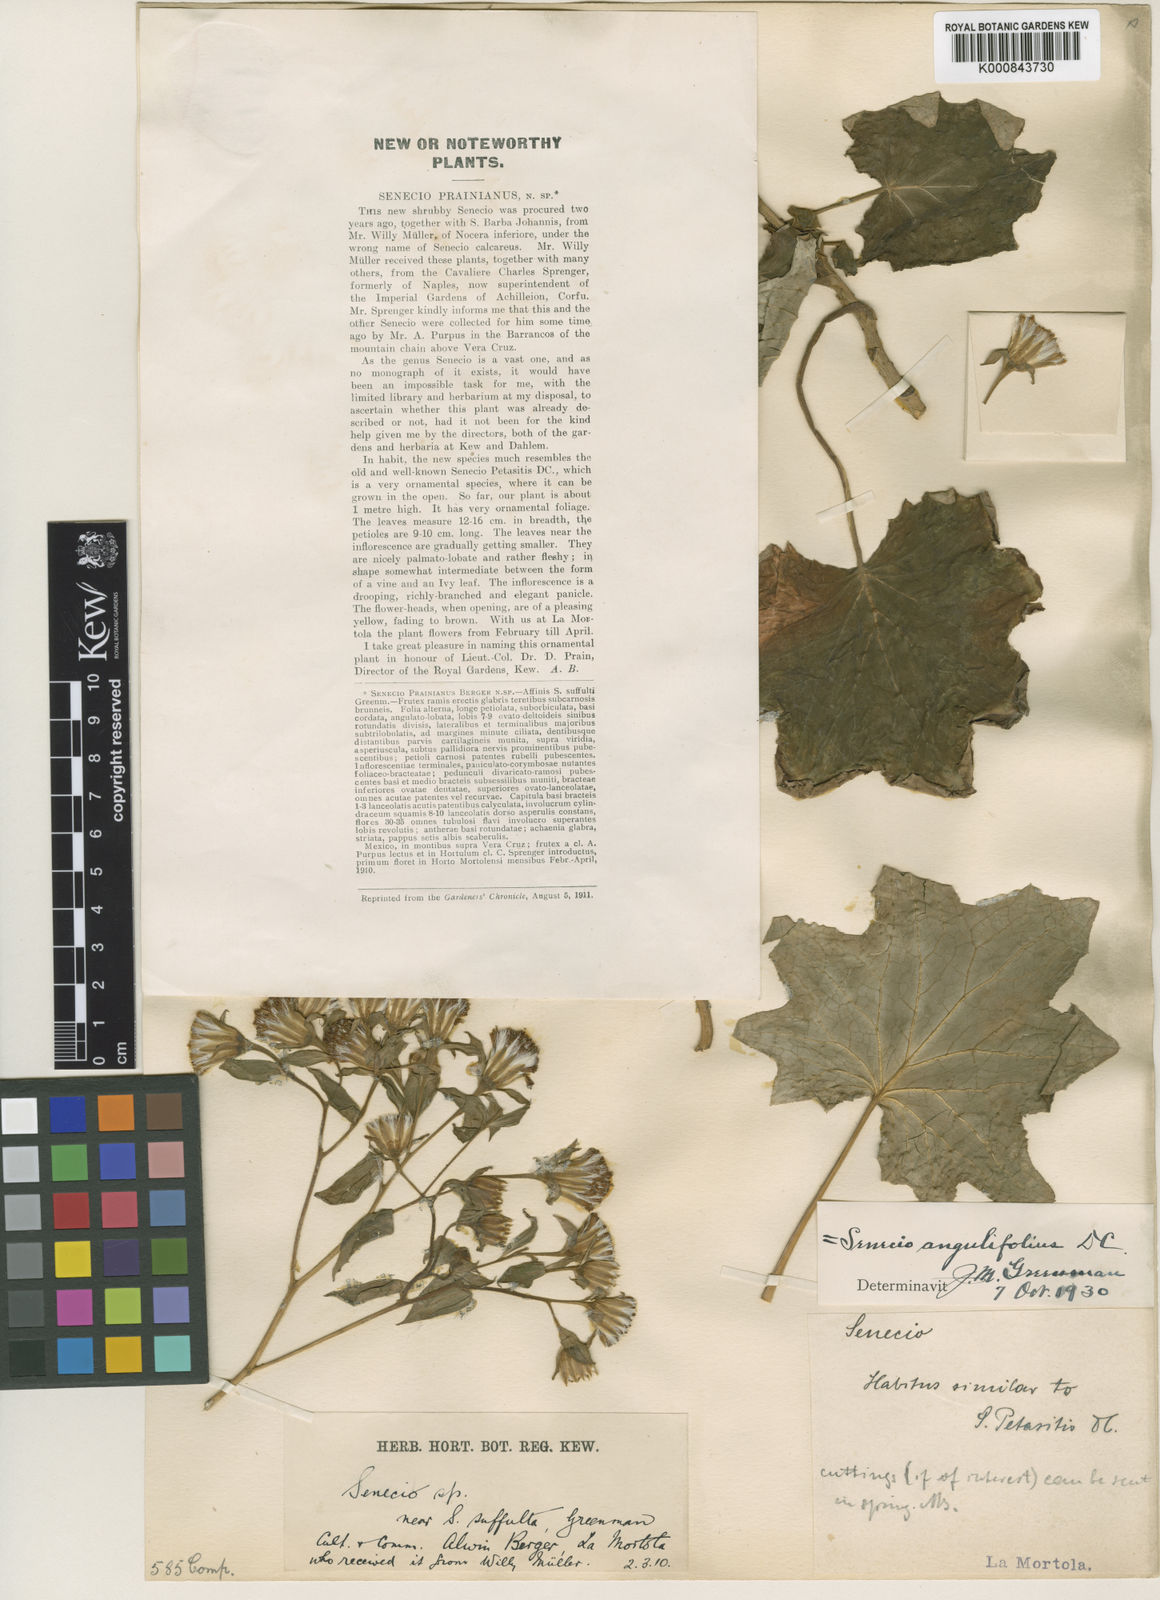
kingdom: Plantae
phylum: Tracheophyta
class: Magnoliopsida
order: Asterales
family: Asteraceae
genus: Roldana
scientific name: Roldana angulifolia
